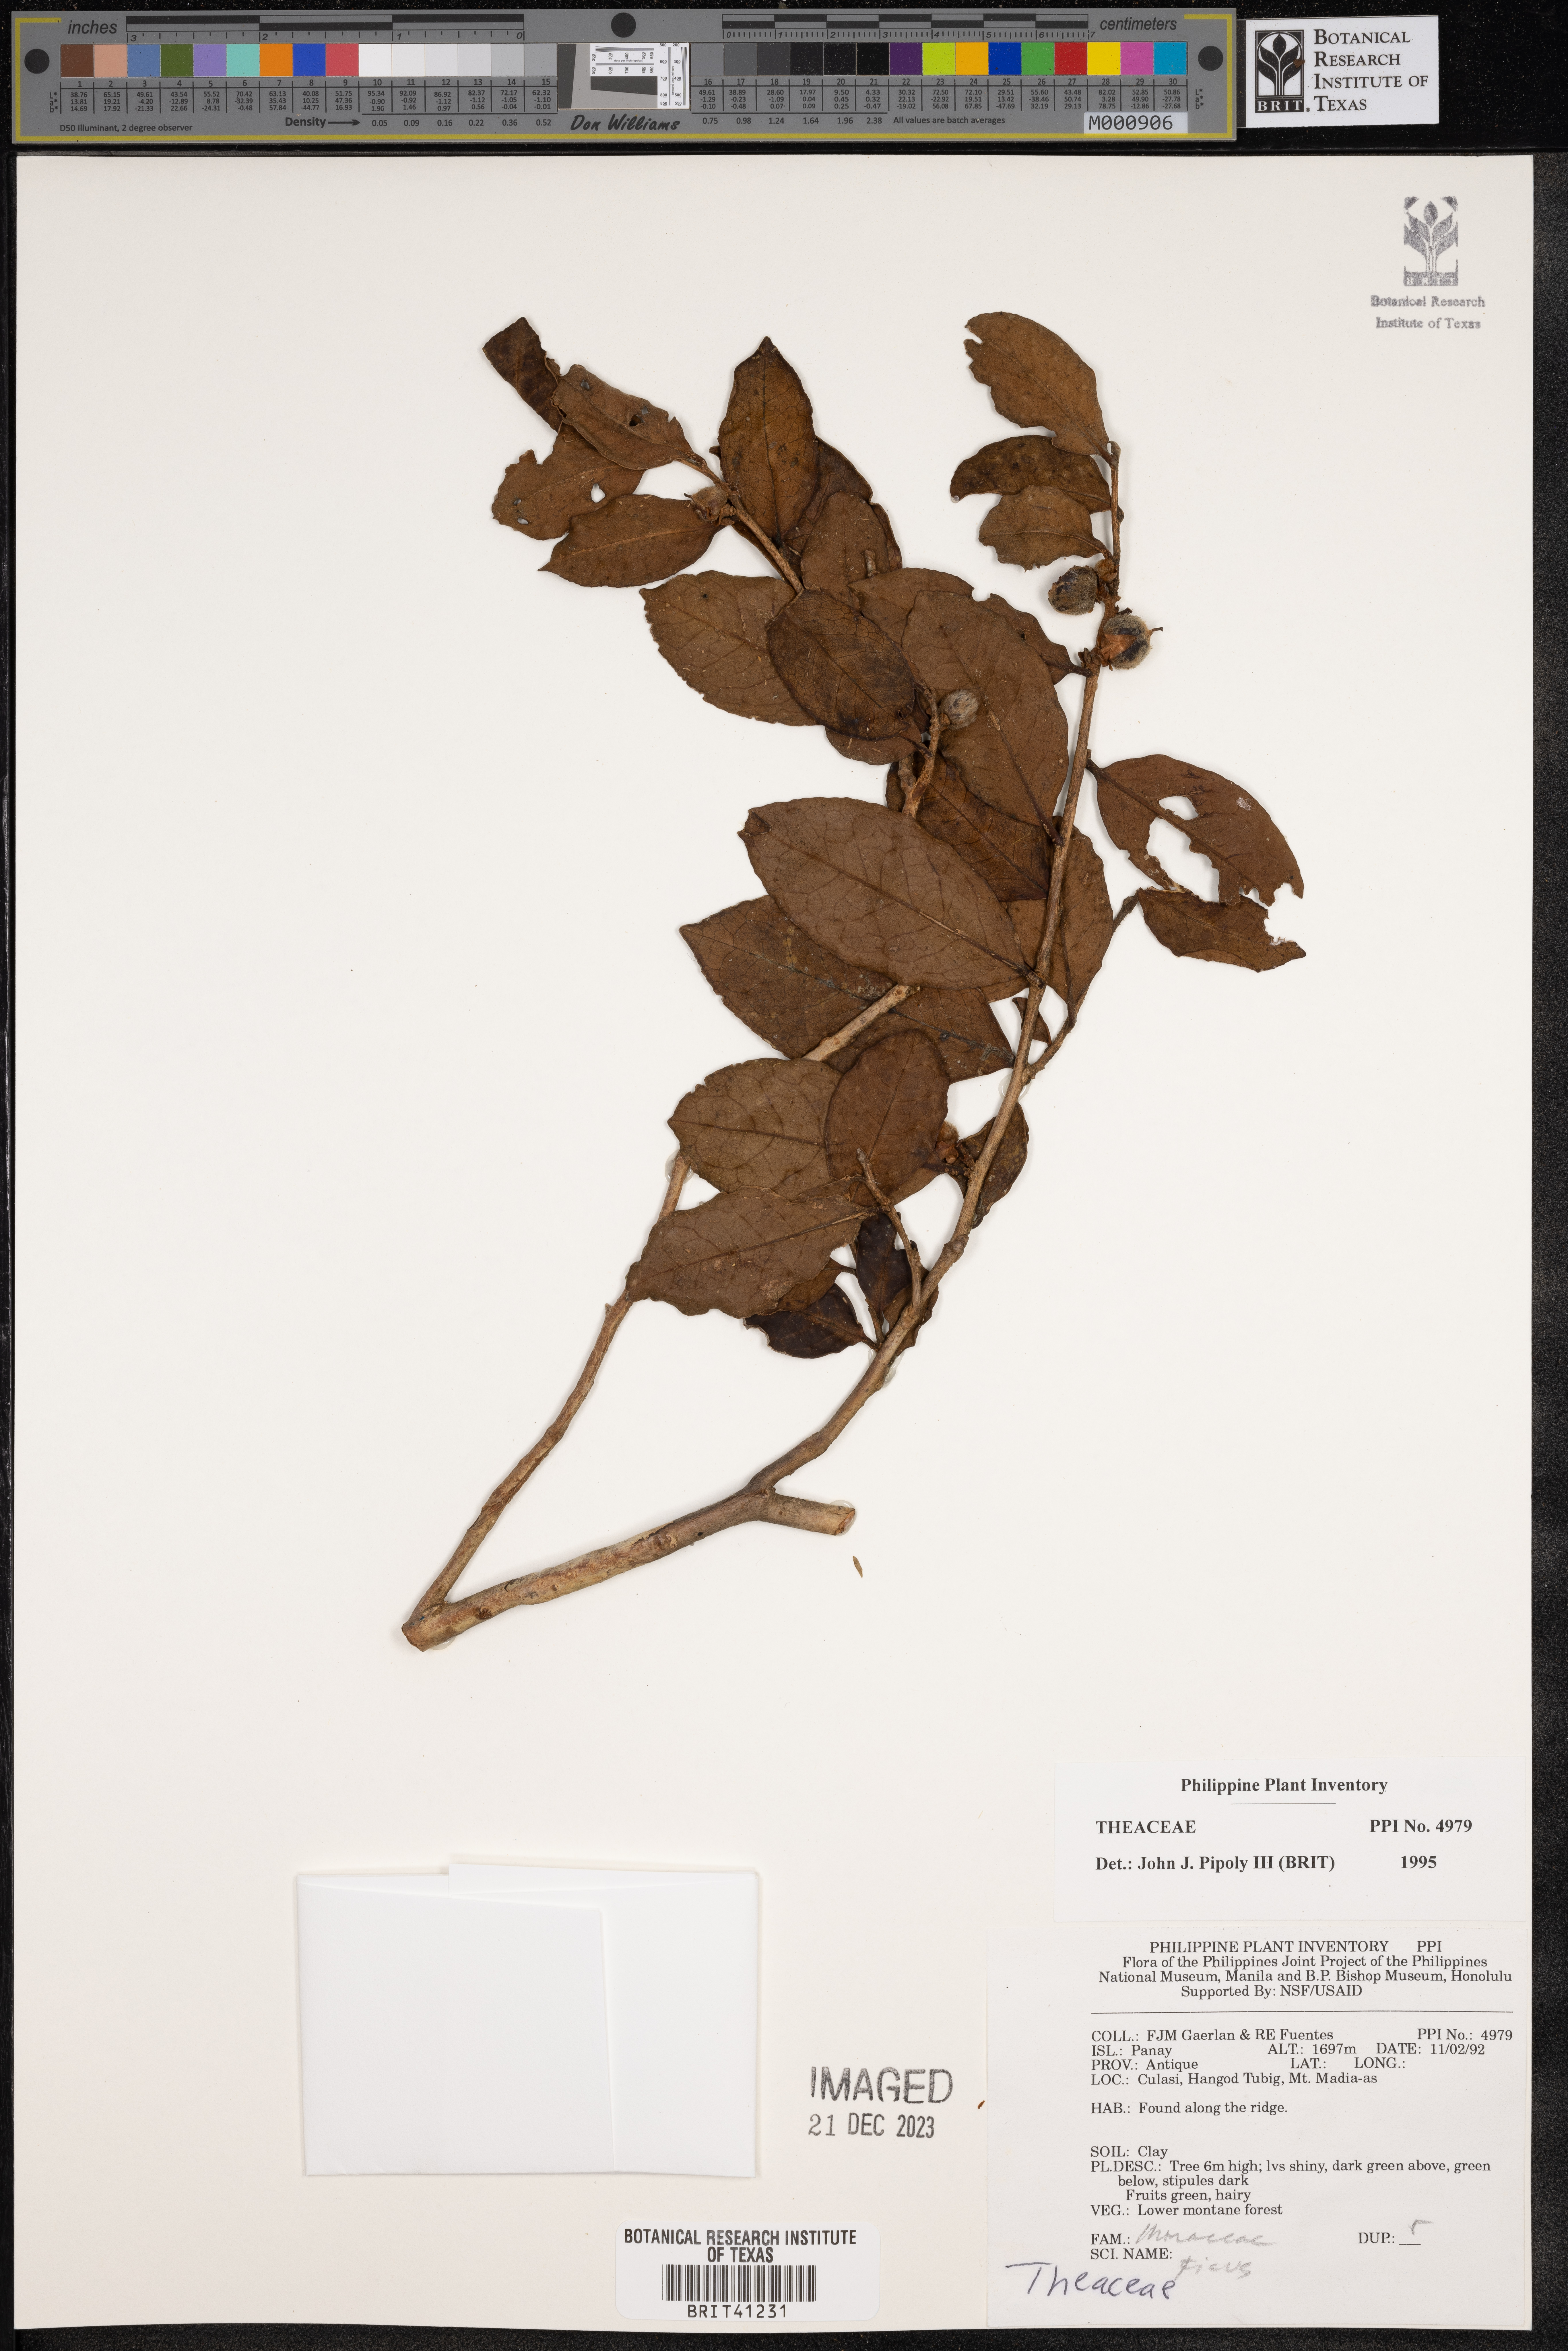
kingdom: Plantae
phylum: Tracheophyta
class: Magnoliopsida
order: Ericales
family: Theaceae
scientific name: Theaceae
